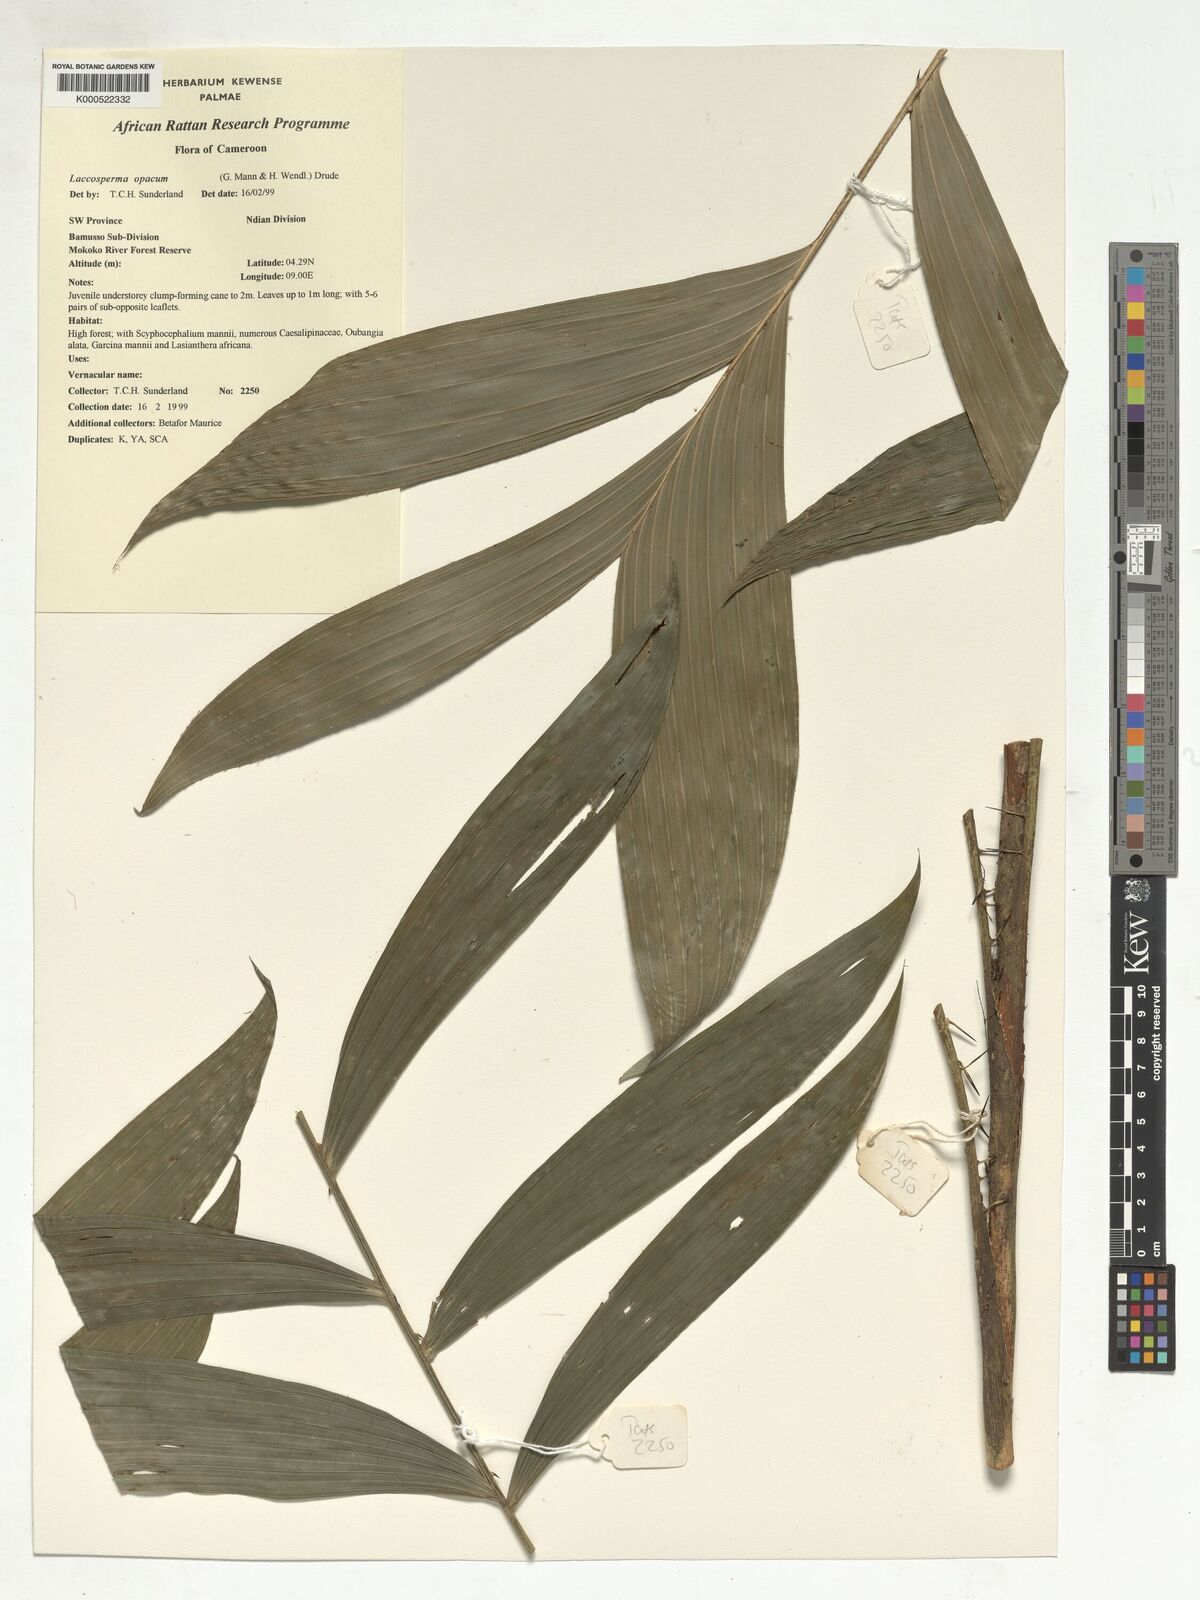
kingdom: Plantae
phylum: Tracheophyta
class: Liliopsida
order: Arecales
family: Arecaceae
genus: Laccosperma
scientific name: Laccosperma opacum
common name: Rattan
